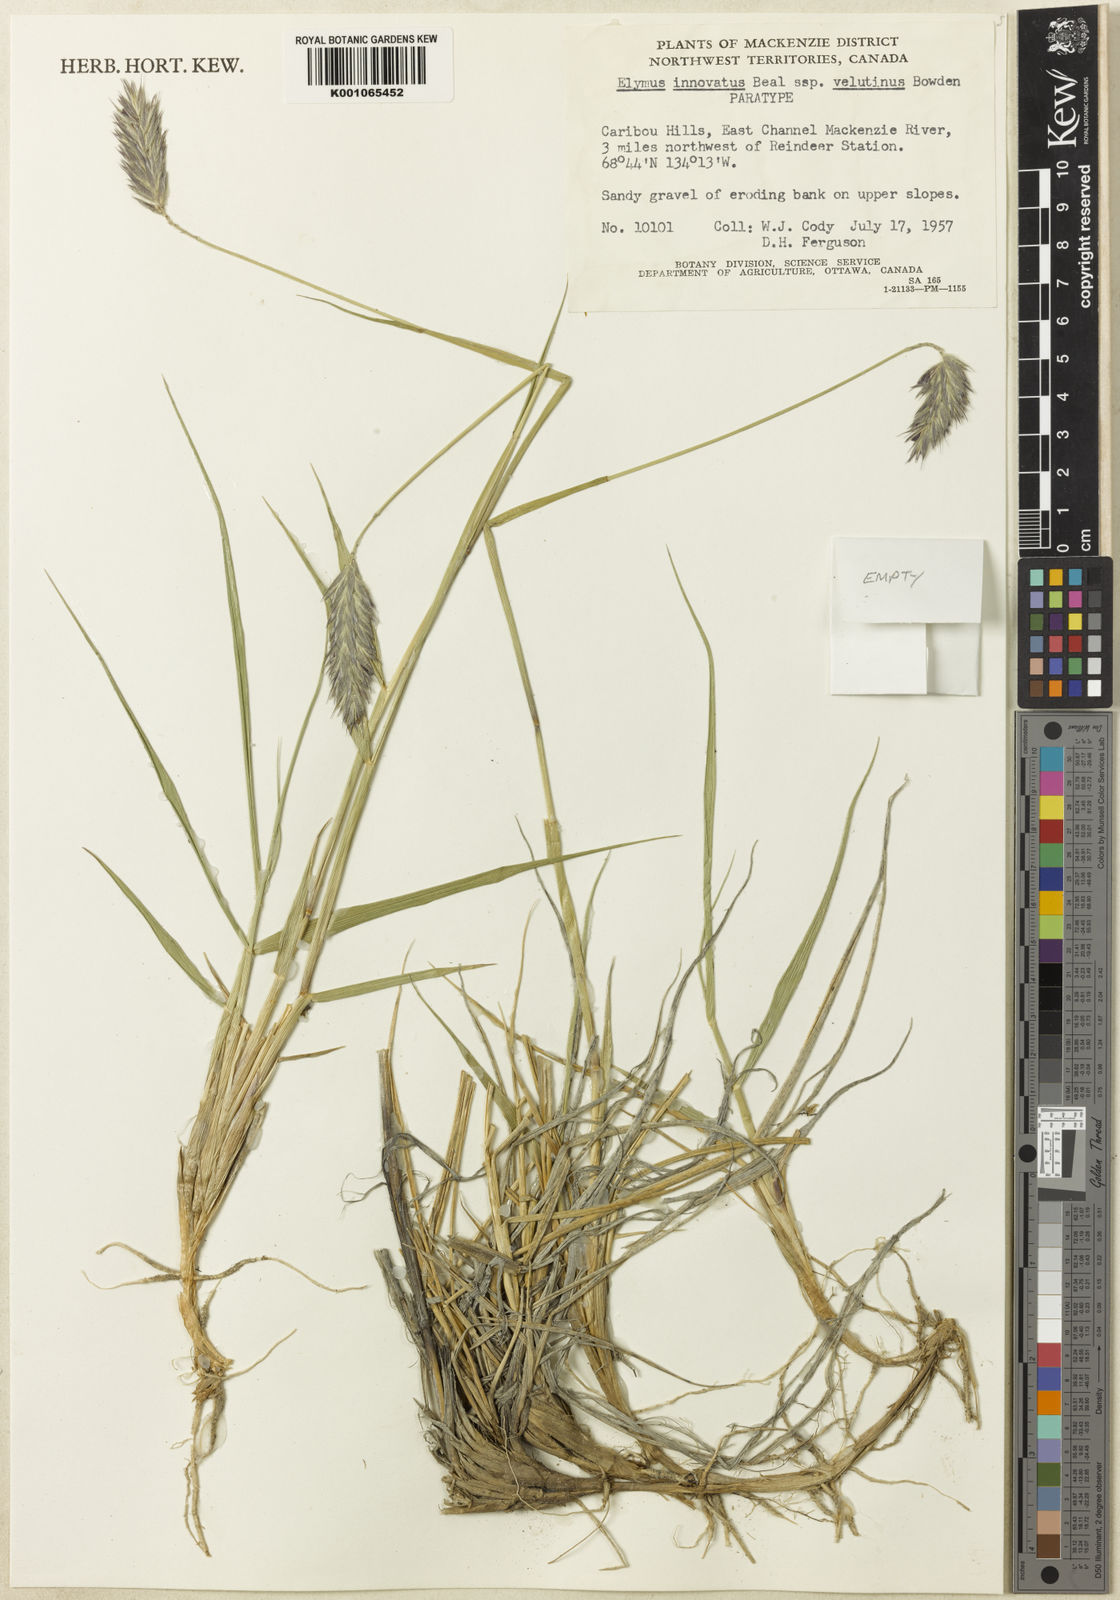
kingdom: Plantae
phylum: Tracheophyta
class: Liliopsida
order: Poales
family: Poaceae
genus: Leymus
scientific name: Leymus innovatus
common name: Boreal wild rye
